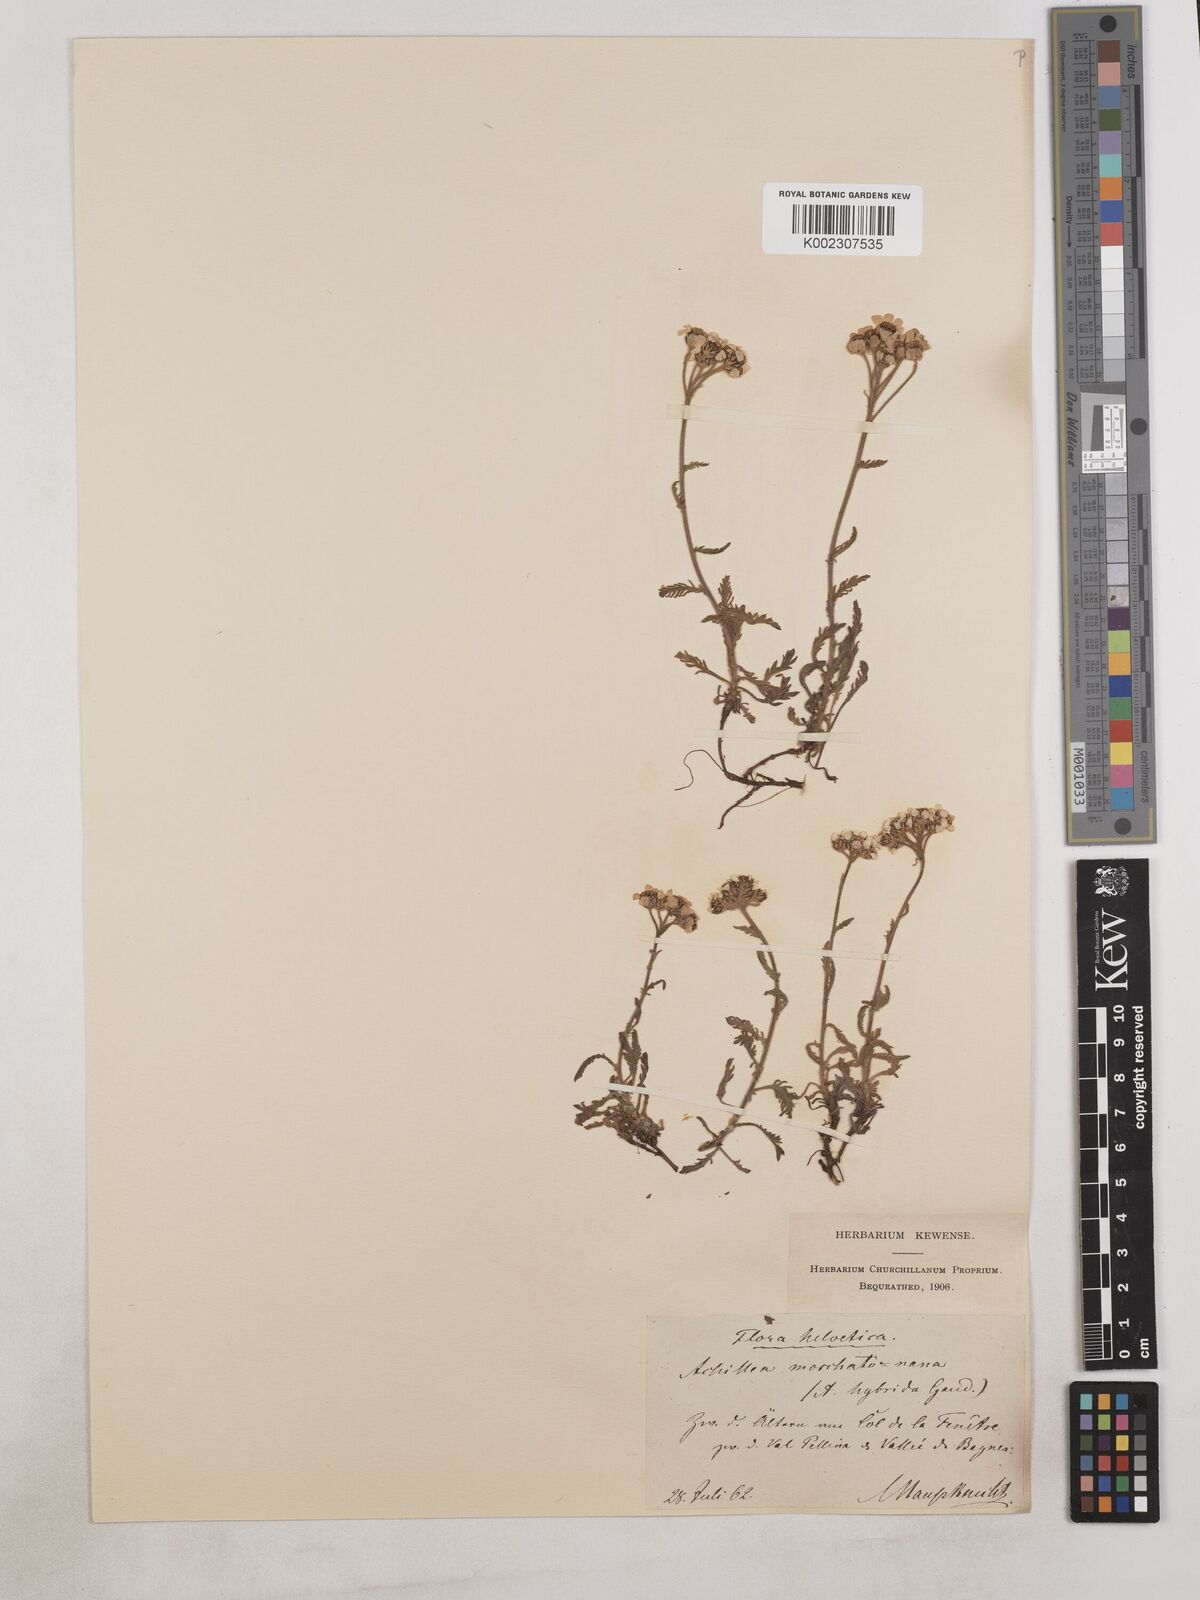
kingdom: Plantae
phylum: Tracheophyta
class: Magnoliopsida
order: Asterales
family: Asteraceae
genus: Achillea
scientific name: Achillea erba-rotta
